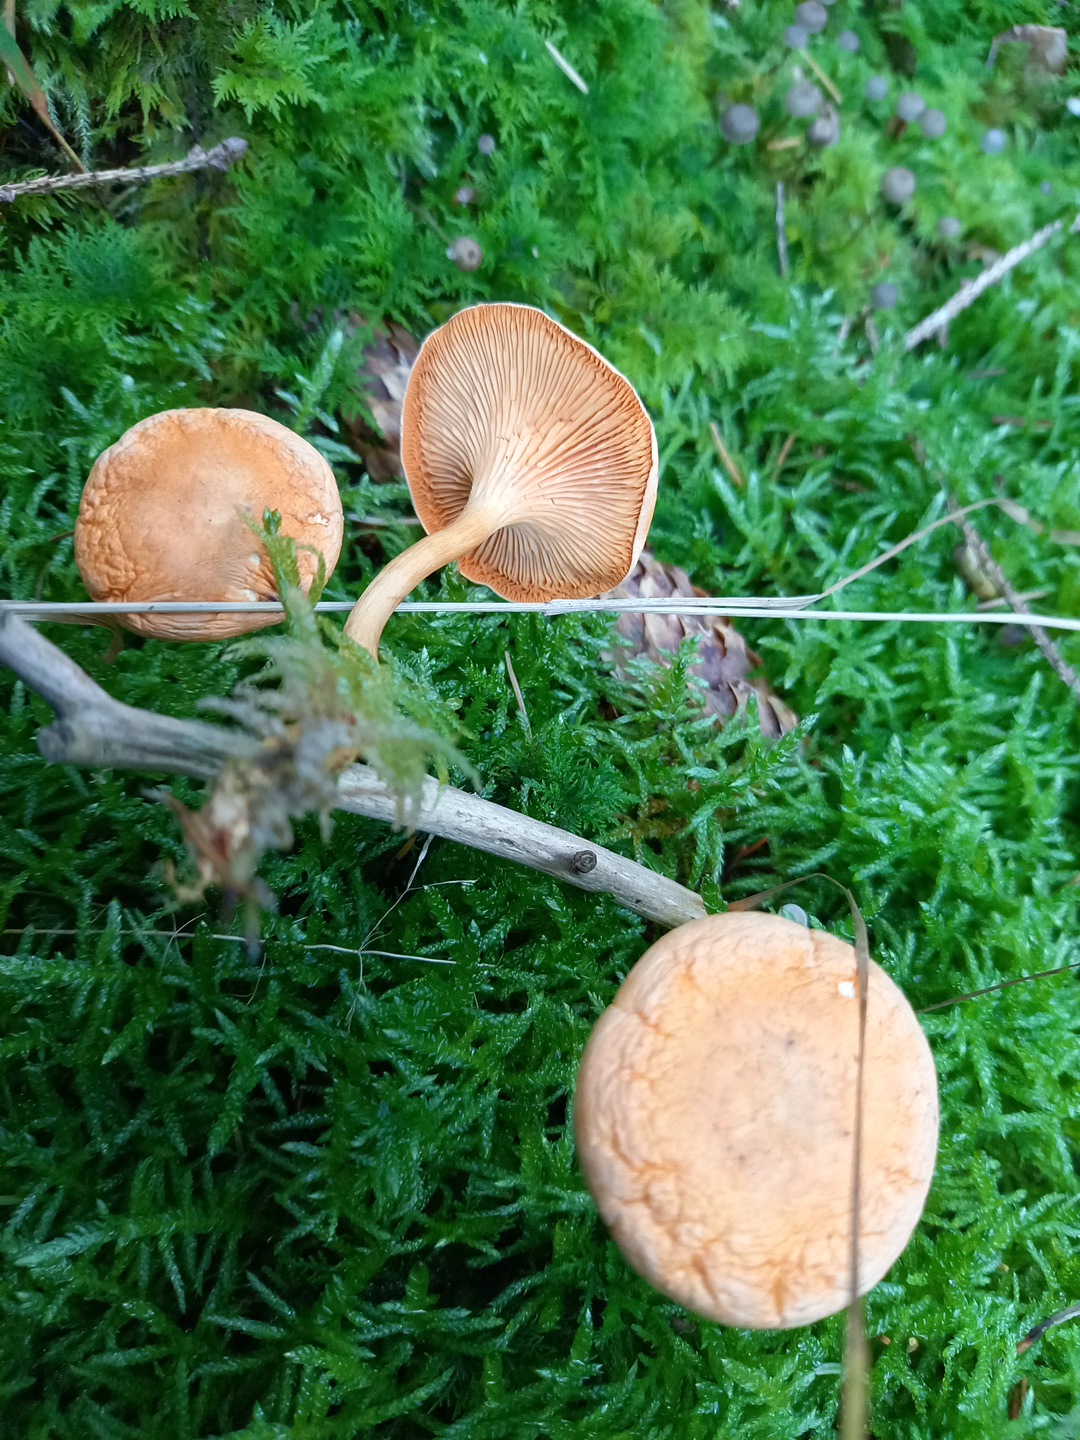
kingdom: Fungi
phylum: Basidiomycota
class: Agaricomycetes
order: Boletales
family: Hygrophoropsidaceae
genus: Hygrophoropsis
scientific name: Hygrophoropsis aurantiaca
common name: almindelig orangekantarel
